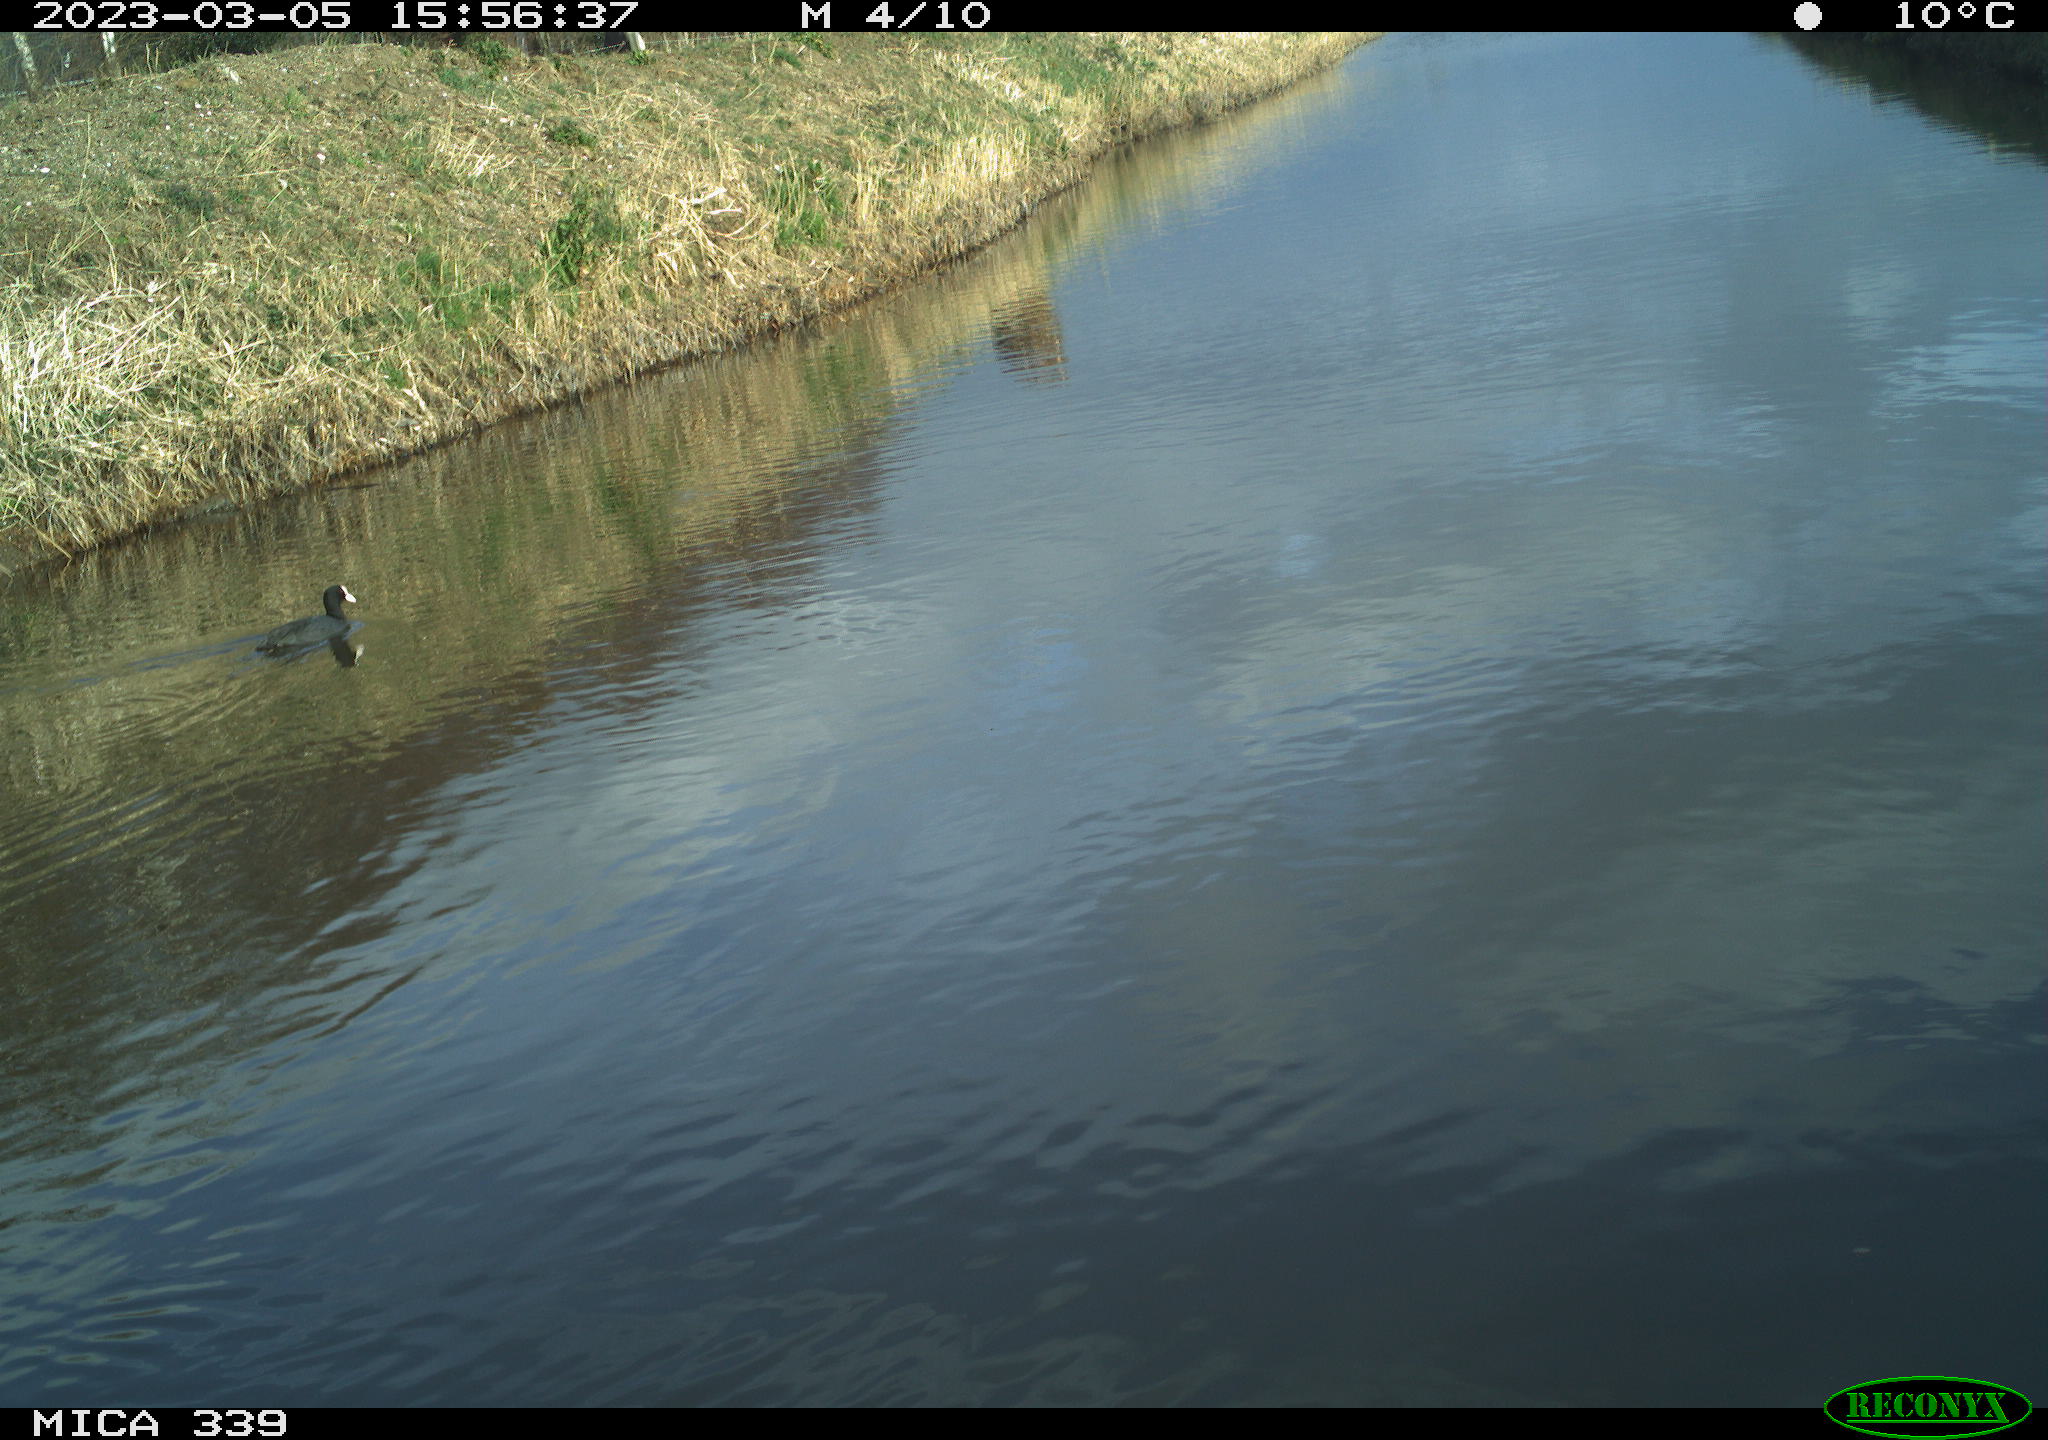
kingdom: Animalia
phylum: Chordata
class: Aves
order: Gruiformes
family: Rallidae
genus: Gallinula
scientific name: Gallinula chloropus
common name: Common moorhen
